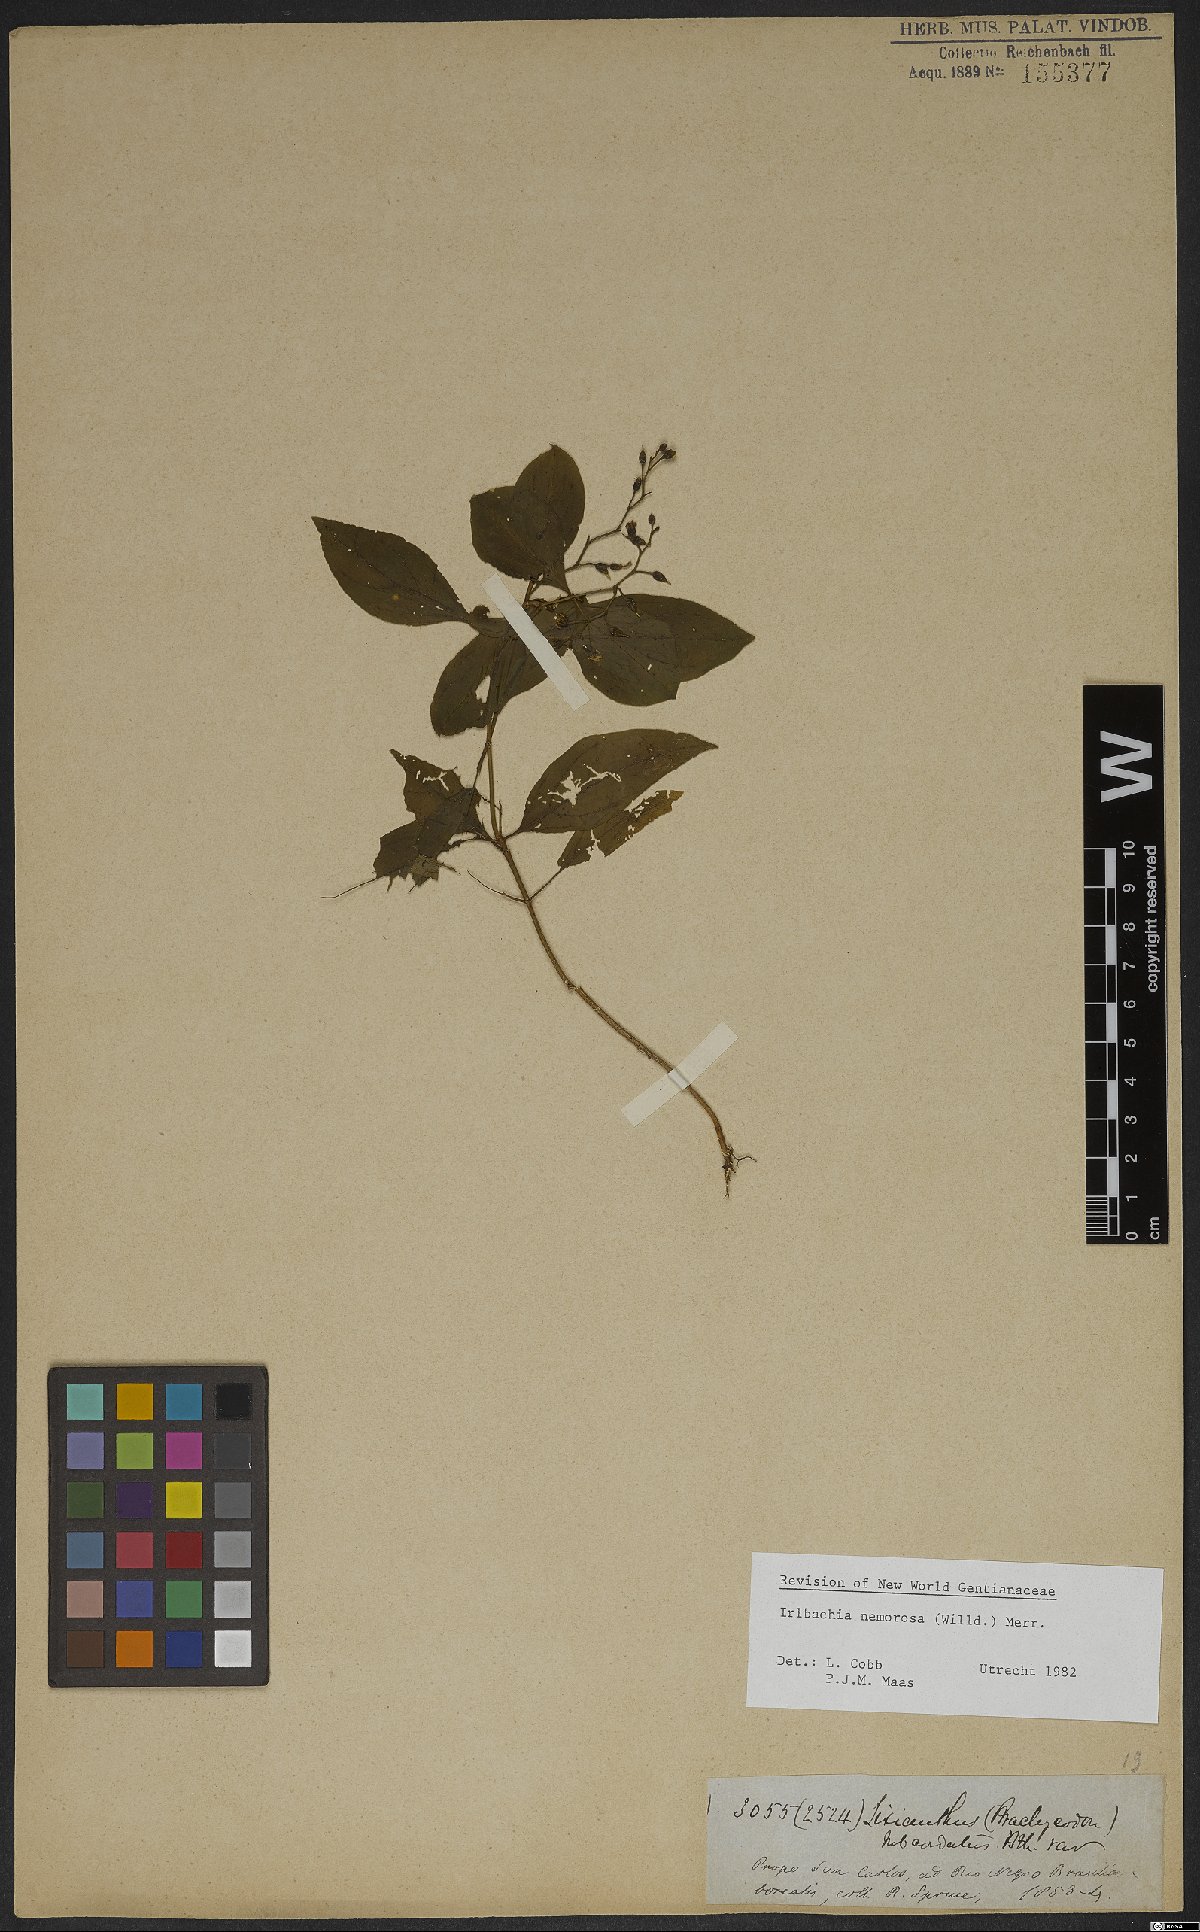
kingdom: Plantae
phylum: Tracheophyta
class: Magnoliopsida
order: Gentianales
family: Gentianaceae
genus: Irlbachia
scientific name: Irlbachia nemorosa
